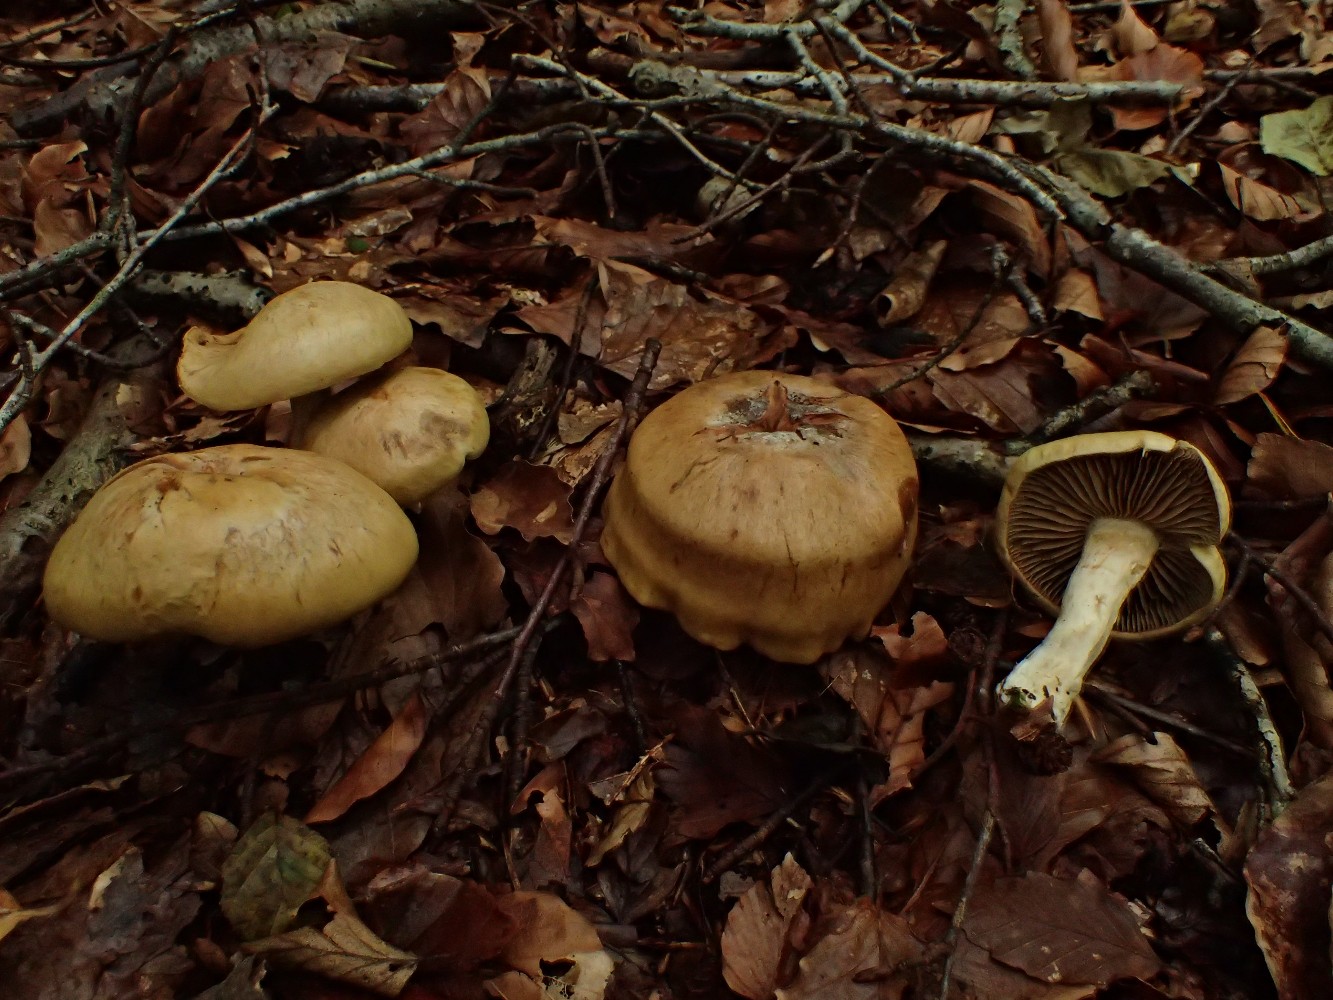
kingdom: Fungi
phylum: Basidiomycota
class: Agaricomycetes
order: Agaricales
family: Cortinariaceae
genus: Cortinarius
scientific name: Cortinarius subtortus
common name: olivengul slørhat
